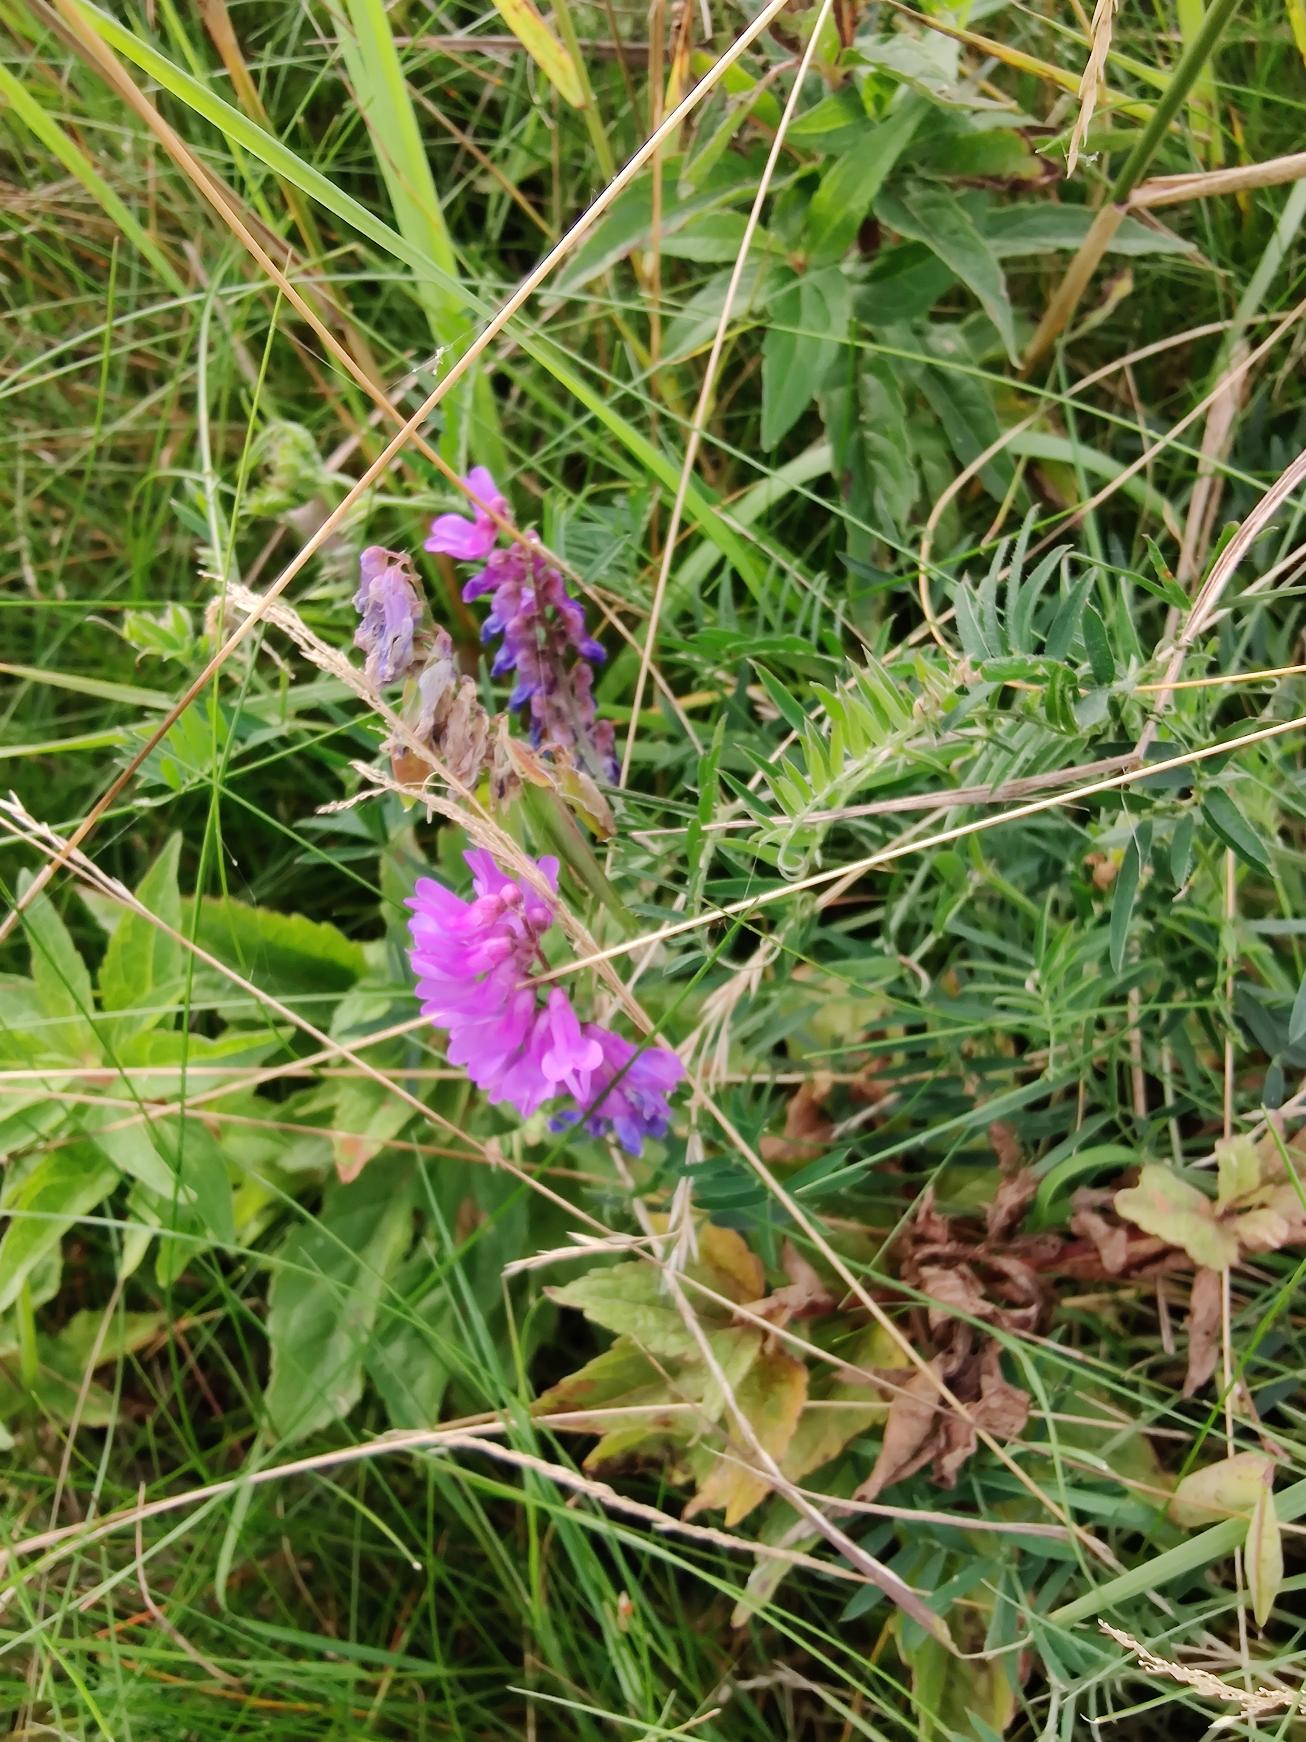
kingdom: Plantae
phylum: Tracheophyta
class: Magnoliopsida
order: Fabales
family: Fabaceae
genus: Vicia
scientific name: Vicia cracca
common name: Muse-vikke
